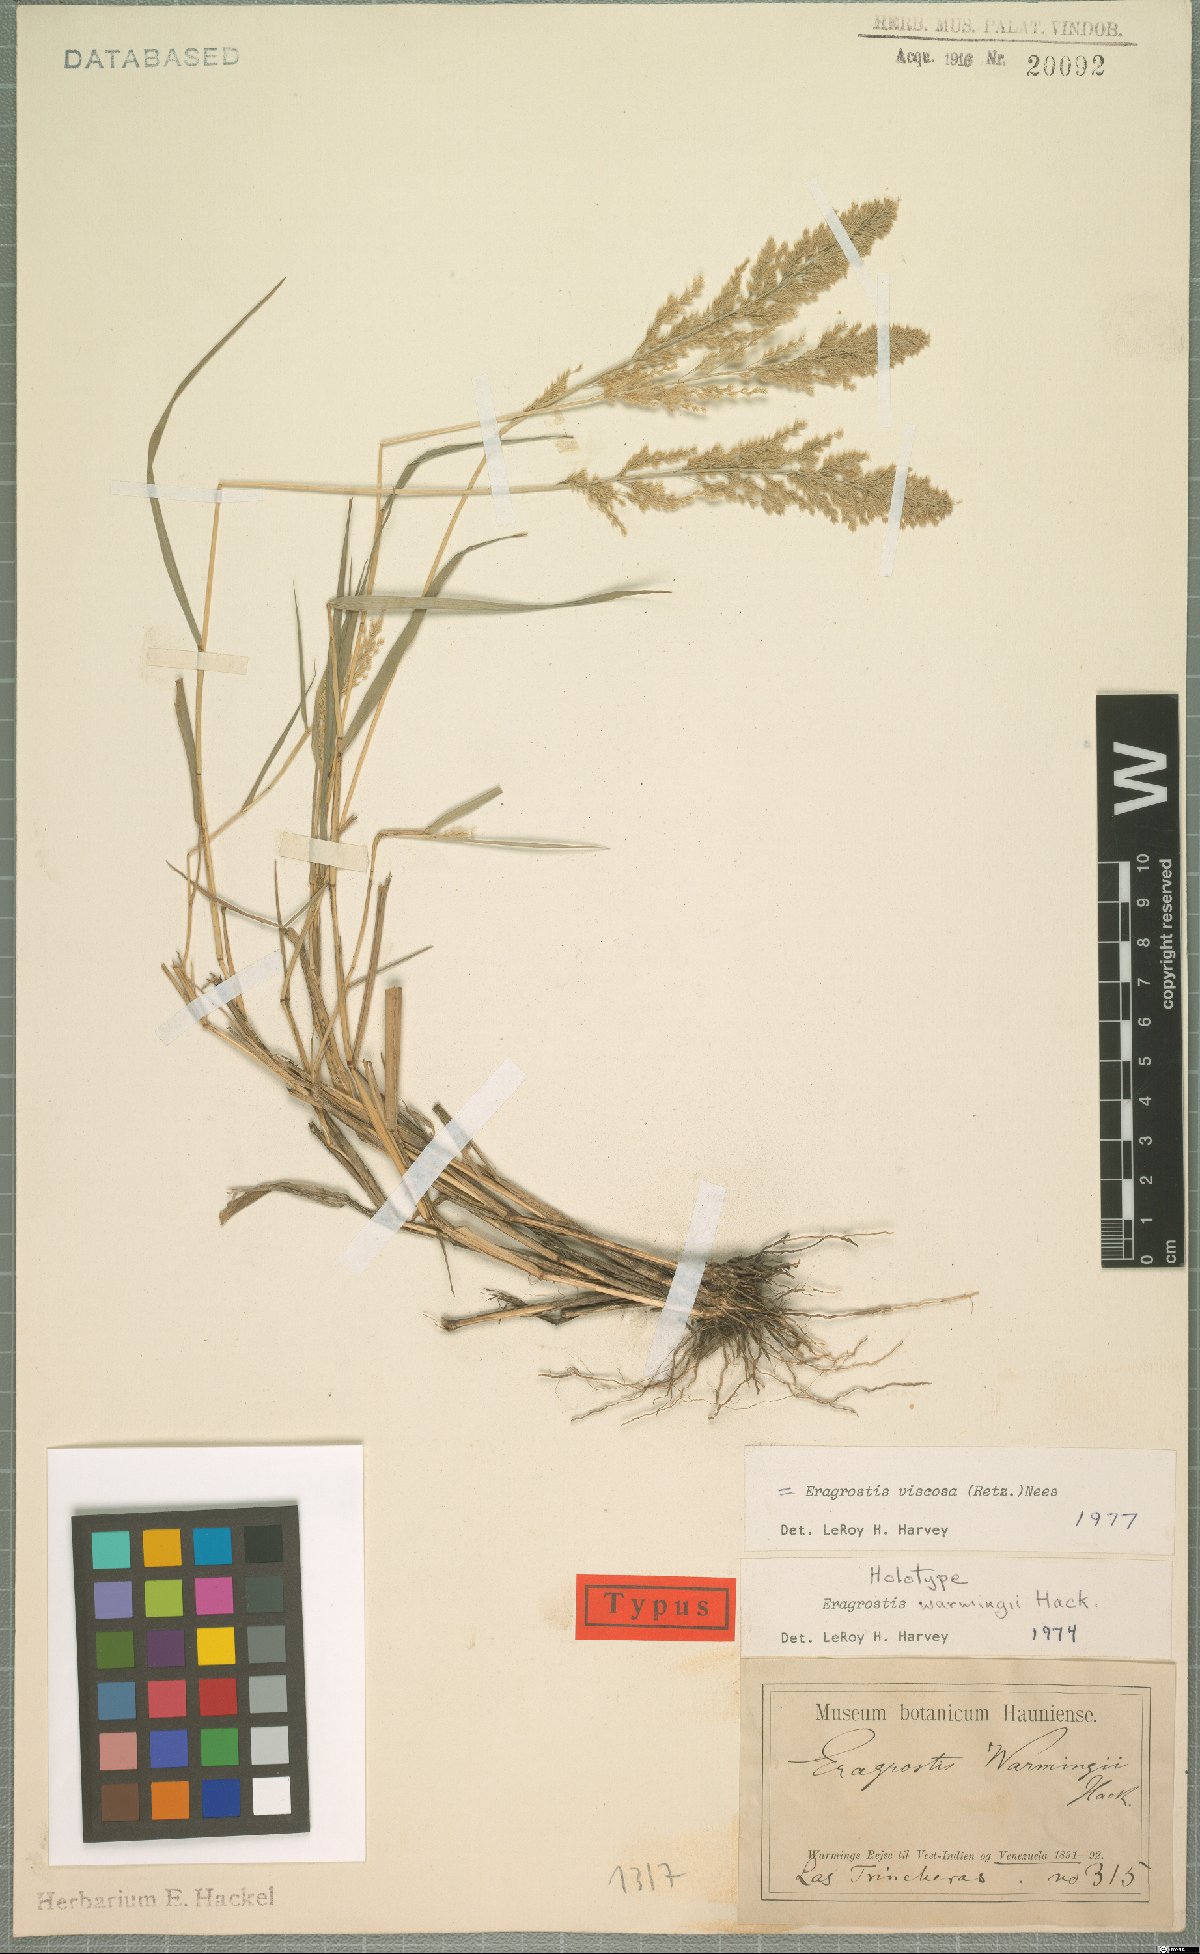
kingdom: Plantae
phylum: Tracheophyta
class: Liliopsida
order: Poales
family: Poaceae
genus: Eragrostis
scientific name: Eragrostis viscosa
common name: Sticky love grass
